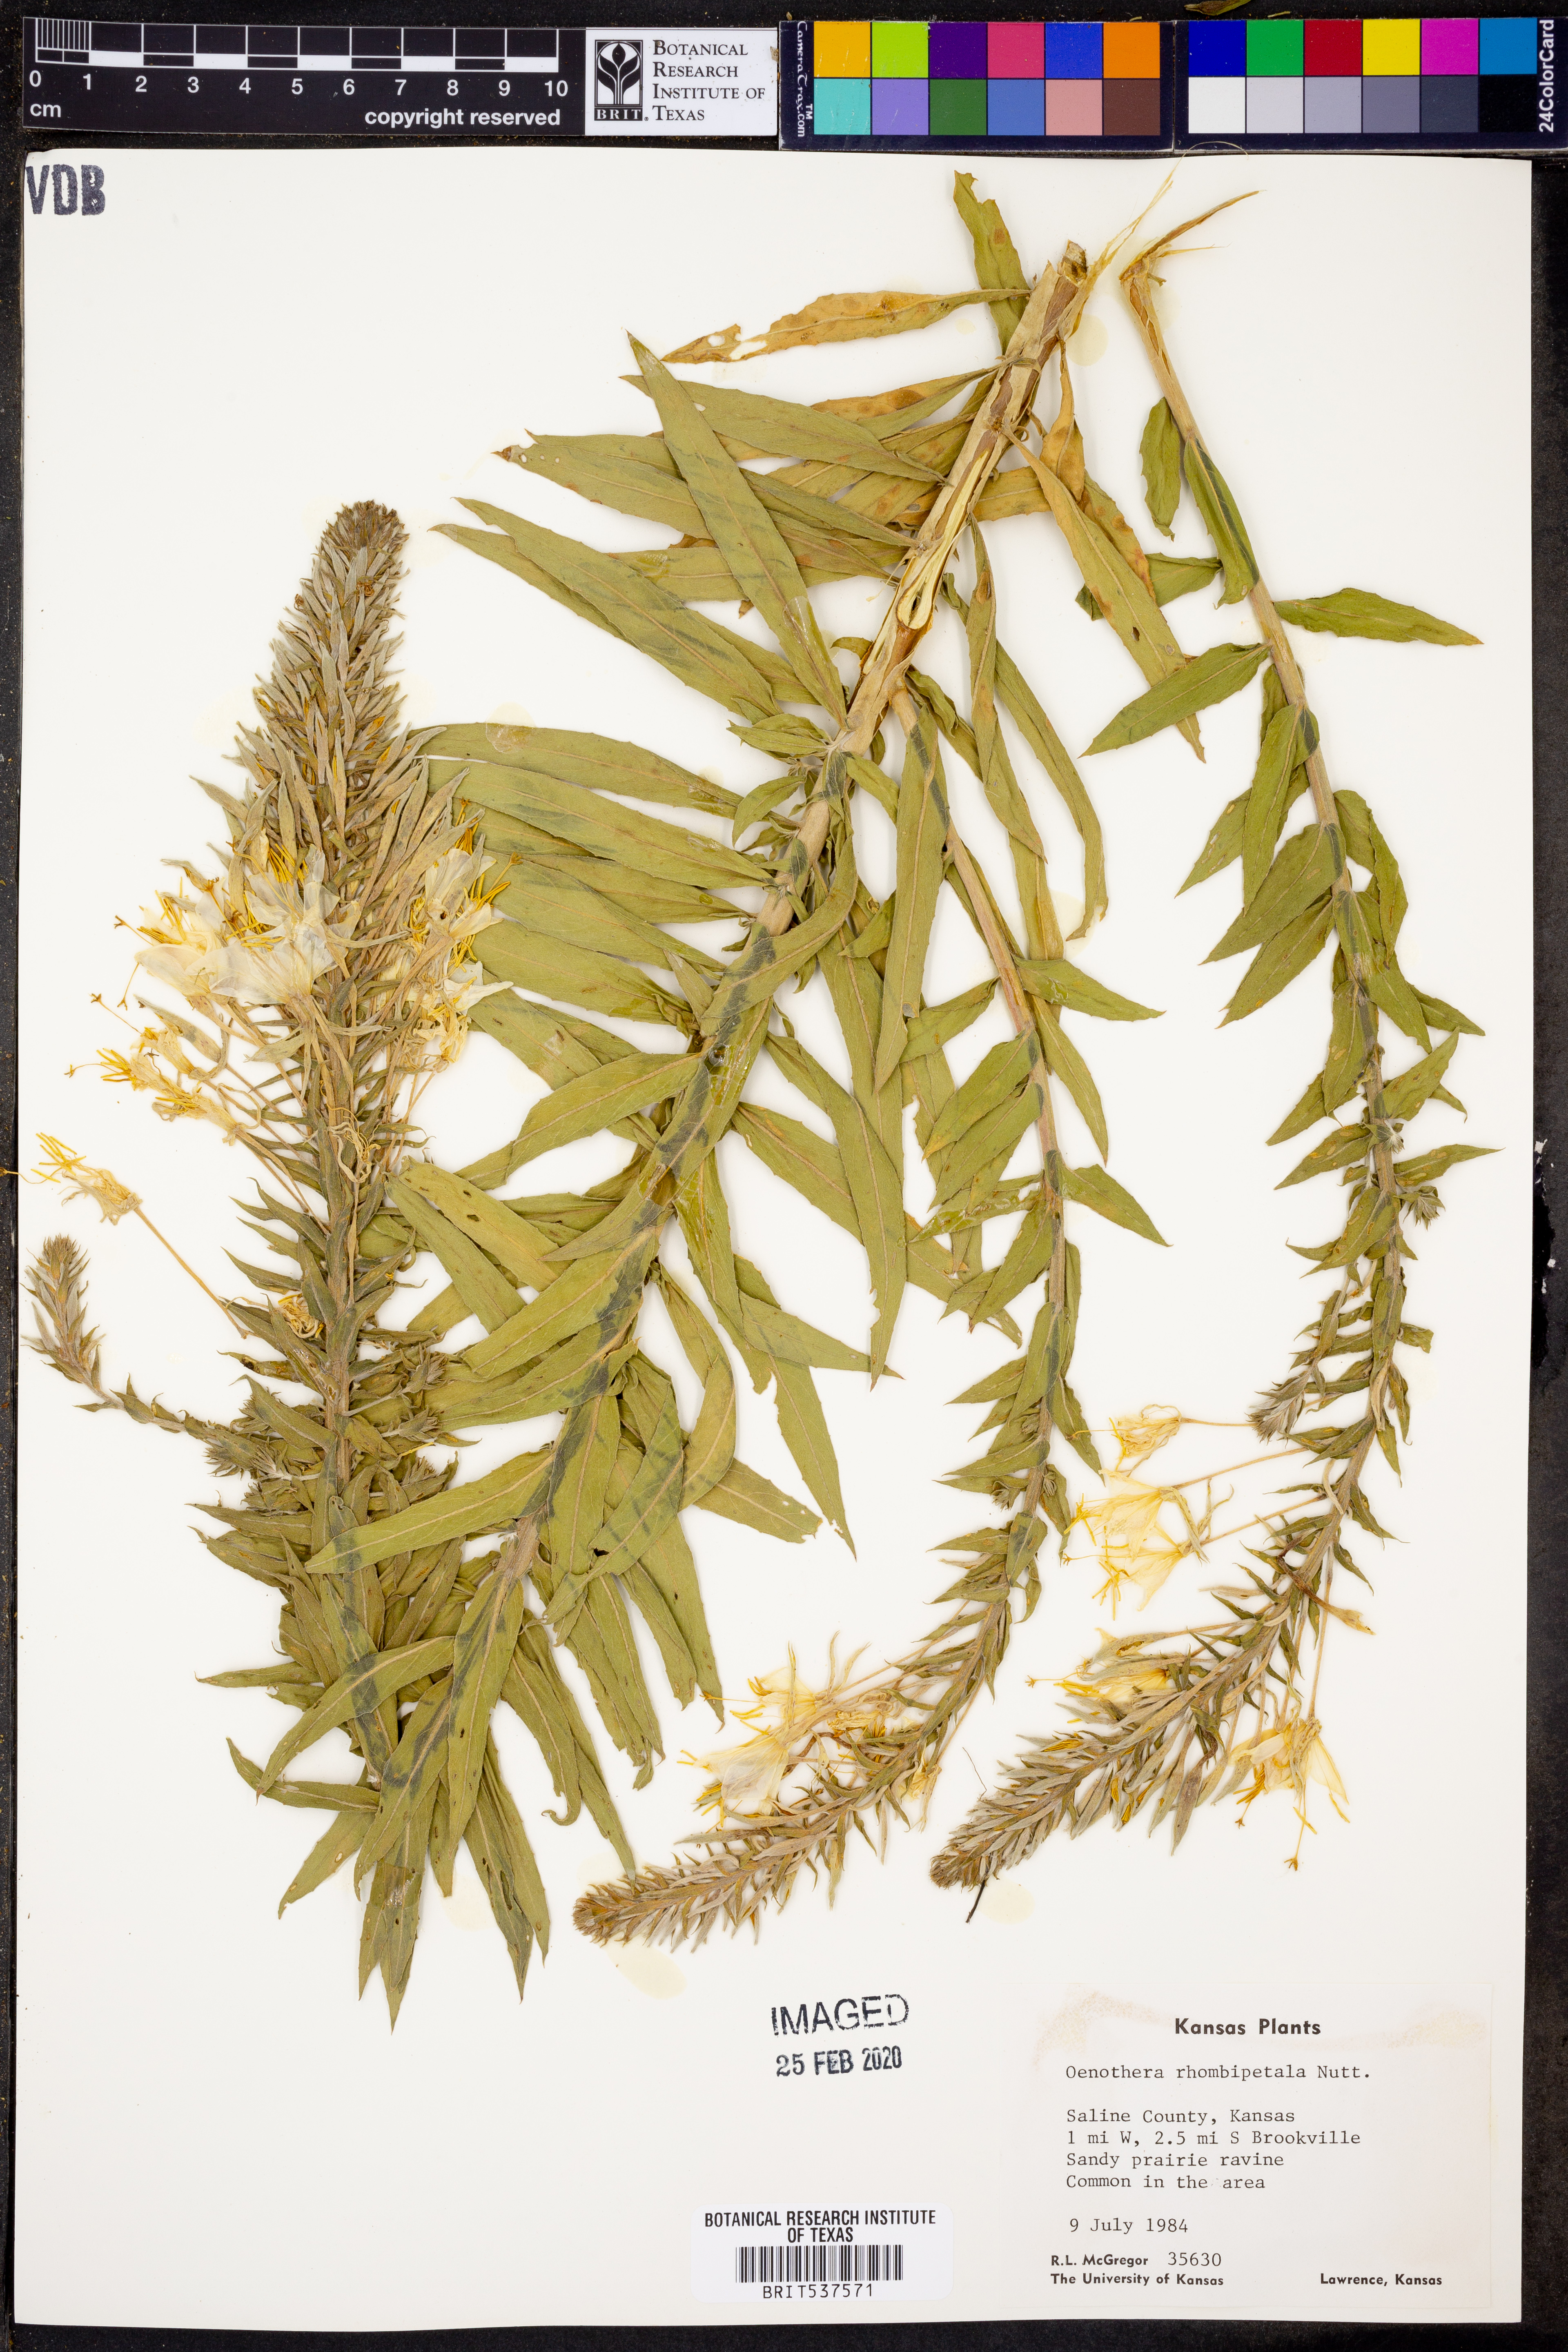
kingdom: Plantae
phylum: Tracheophyta
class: Magnoliopsida
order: Myrtales
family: Onagraceae
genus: Oenothera
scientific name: Oenothera rhombipetala
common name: Four-points evening-primrose
